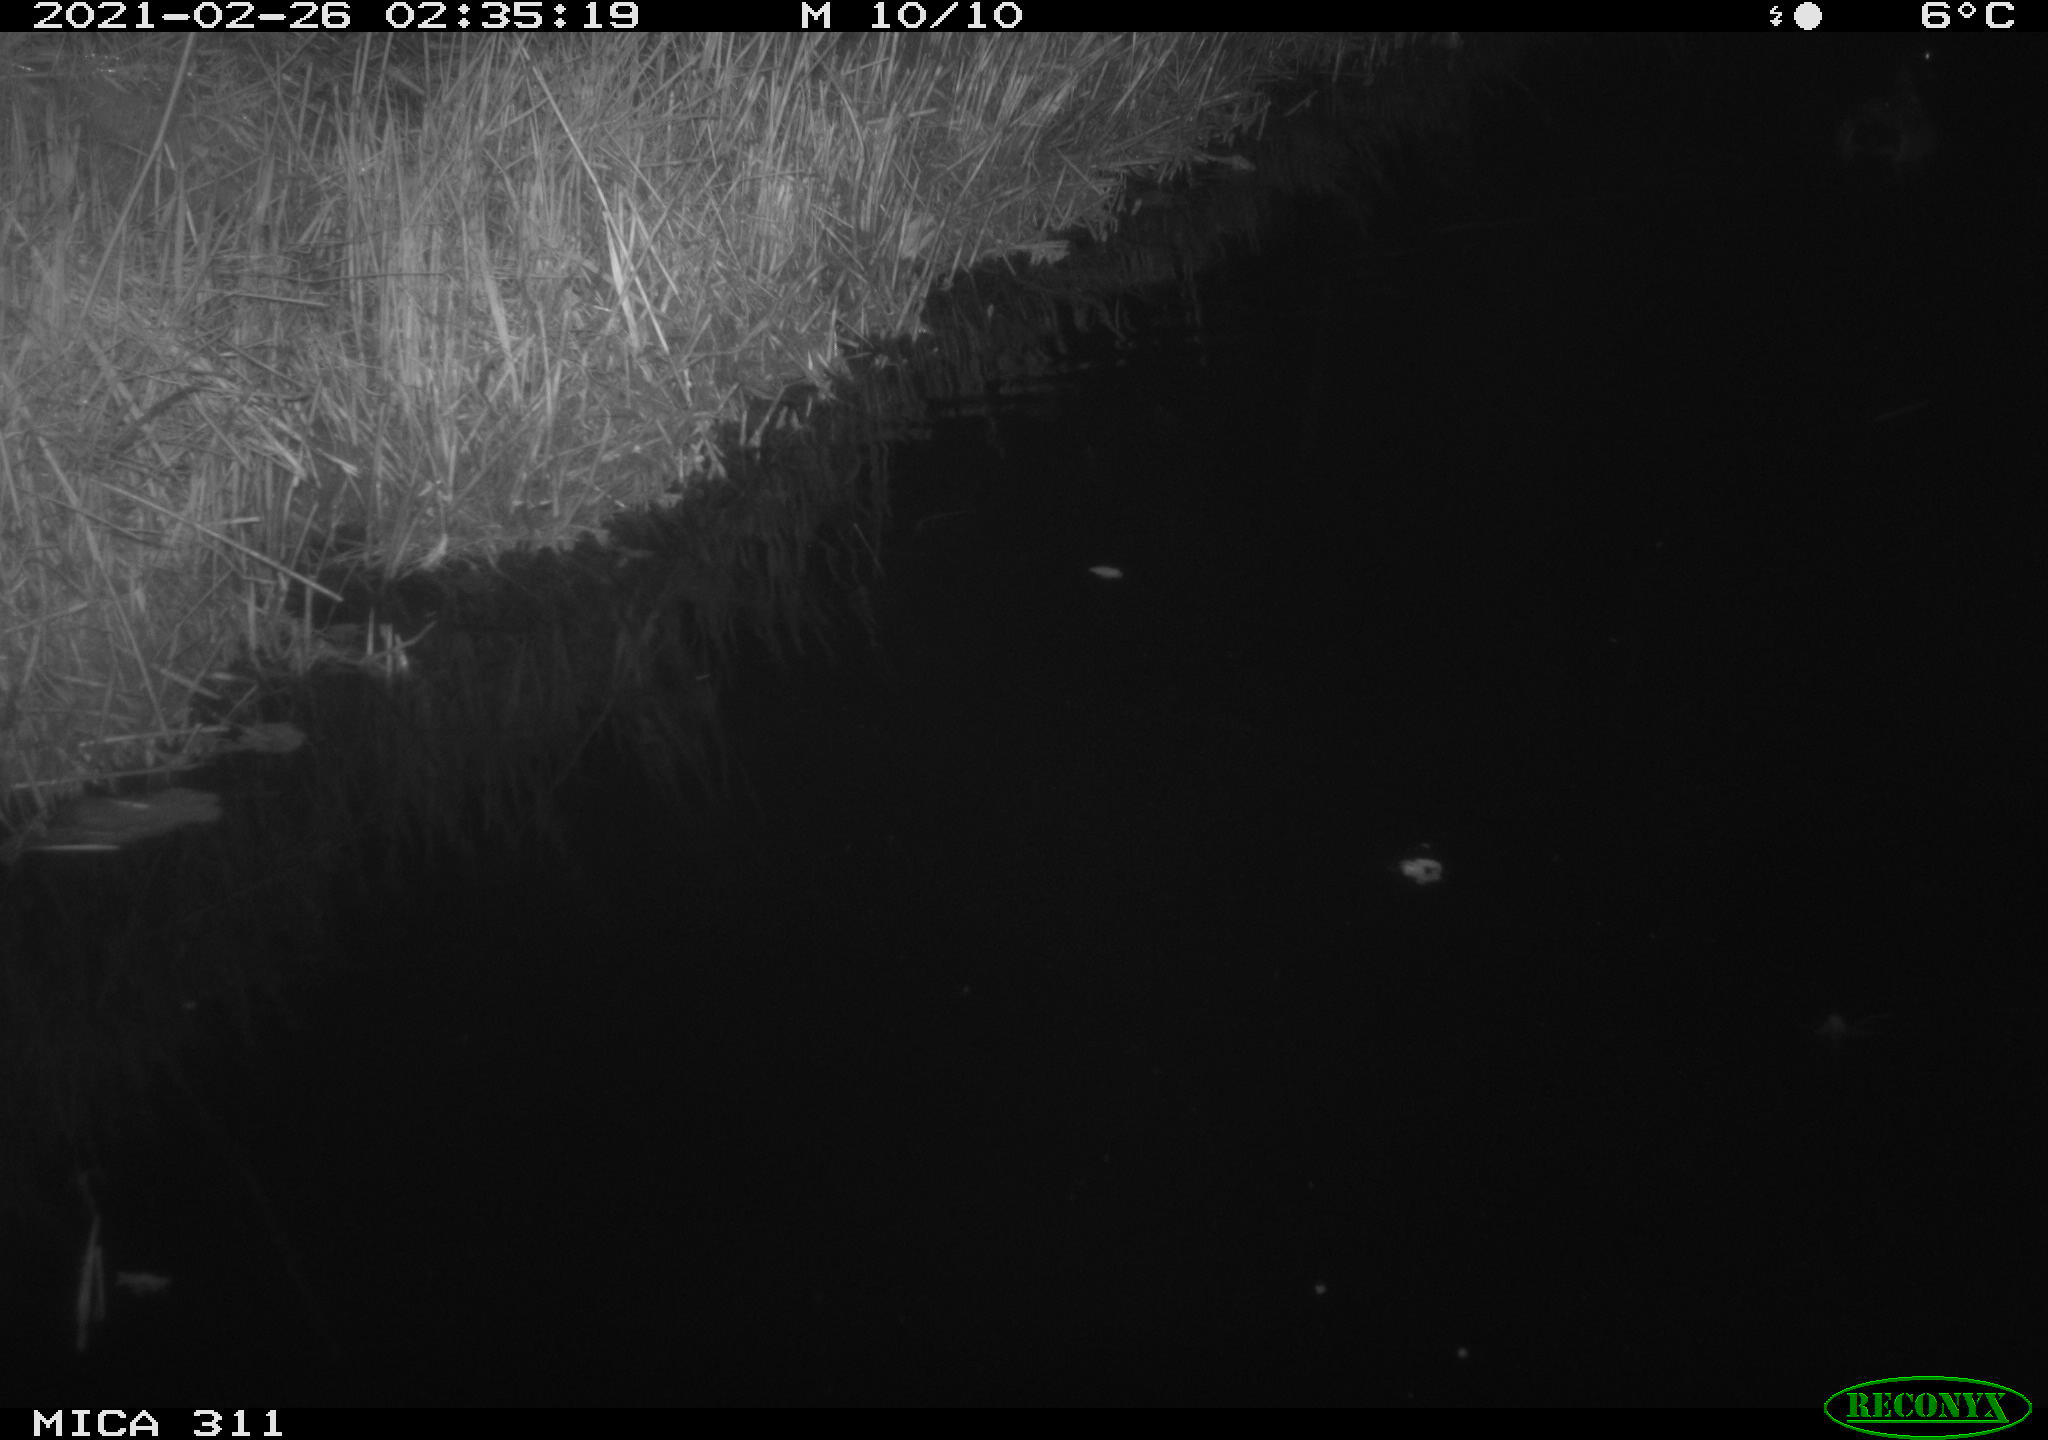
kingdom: Animalia
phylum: Chordata
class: Aves
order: Anseriformes
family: Anatidae
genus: Anas
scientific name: Anas
